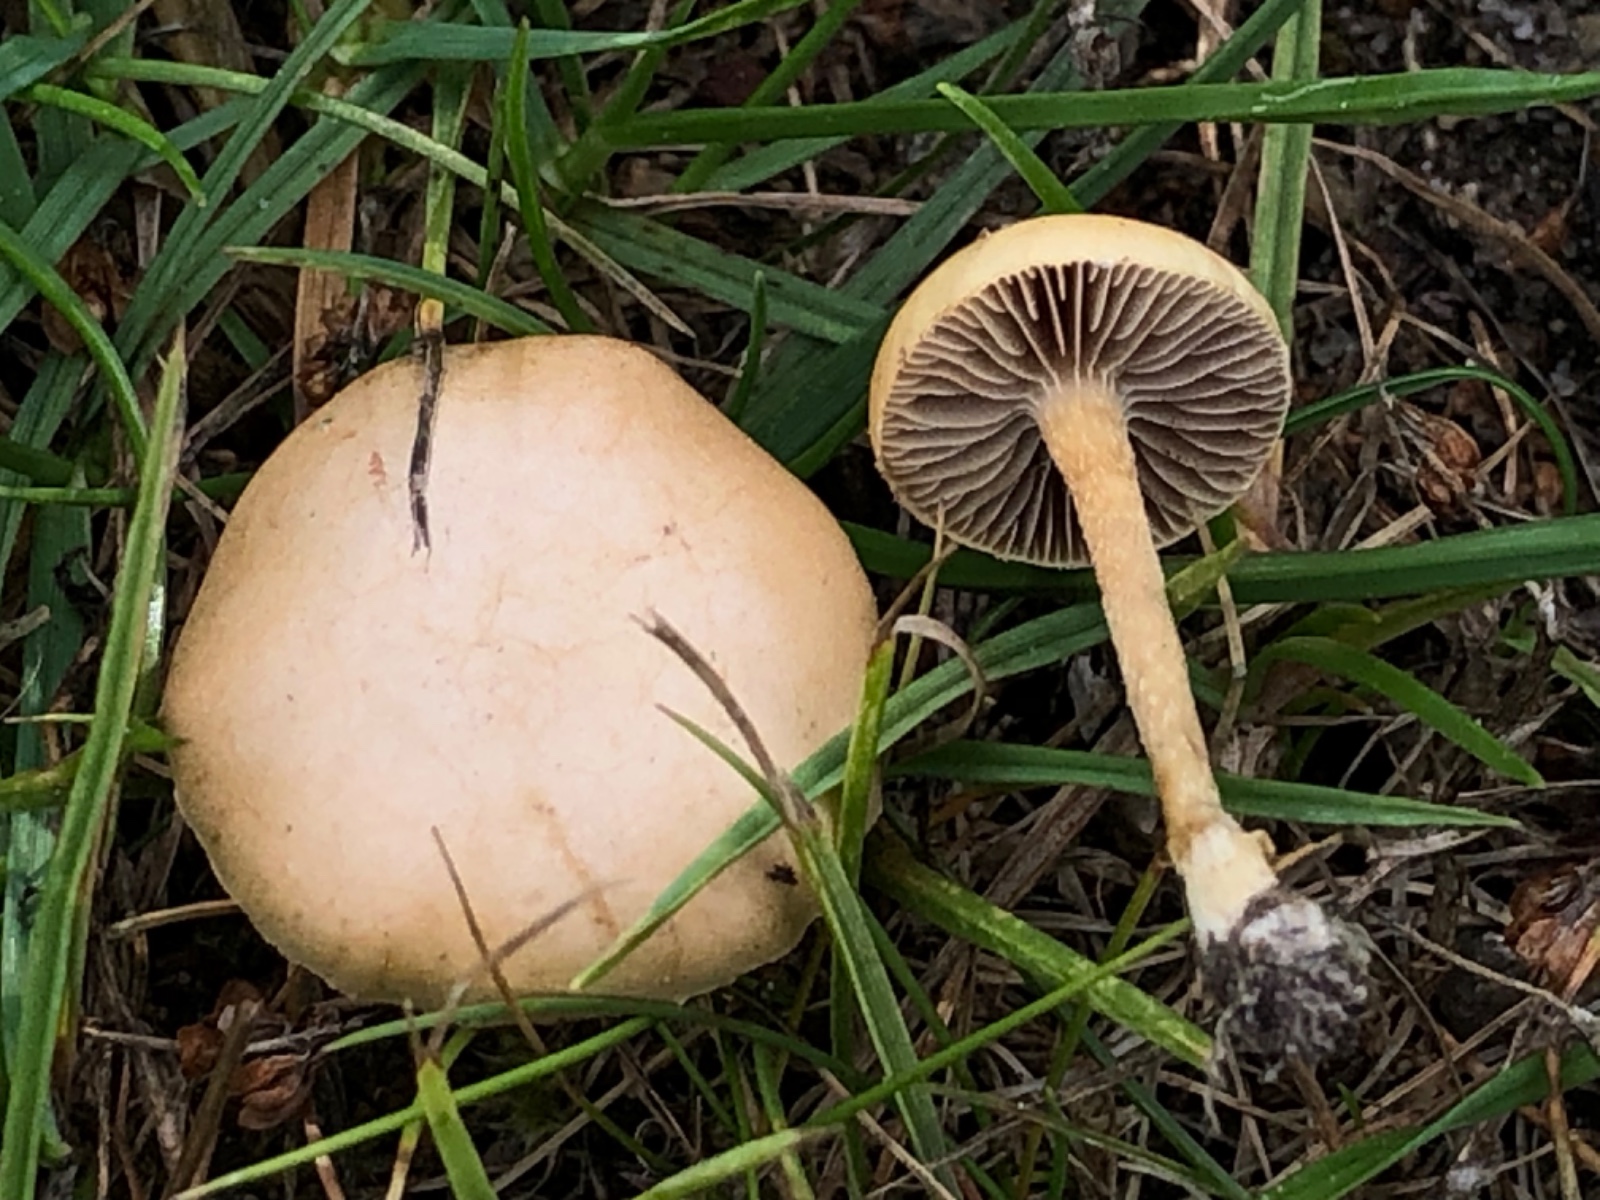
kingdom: Fungi
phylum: Basidiomycota
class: Agaricomycetes
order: Agaricales
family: Strophariaceae
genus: Agrocybe
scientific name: Agrocybe pediades
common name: almindelig agerhat
